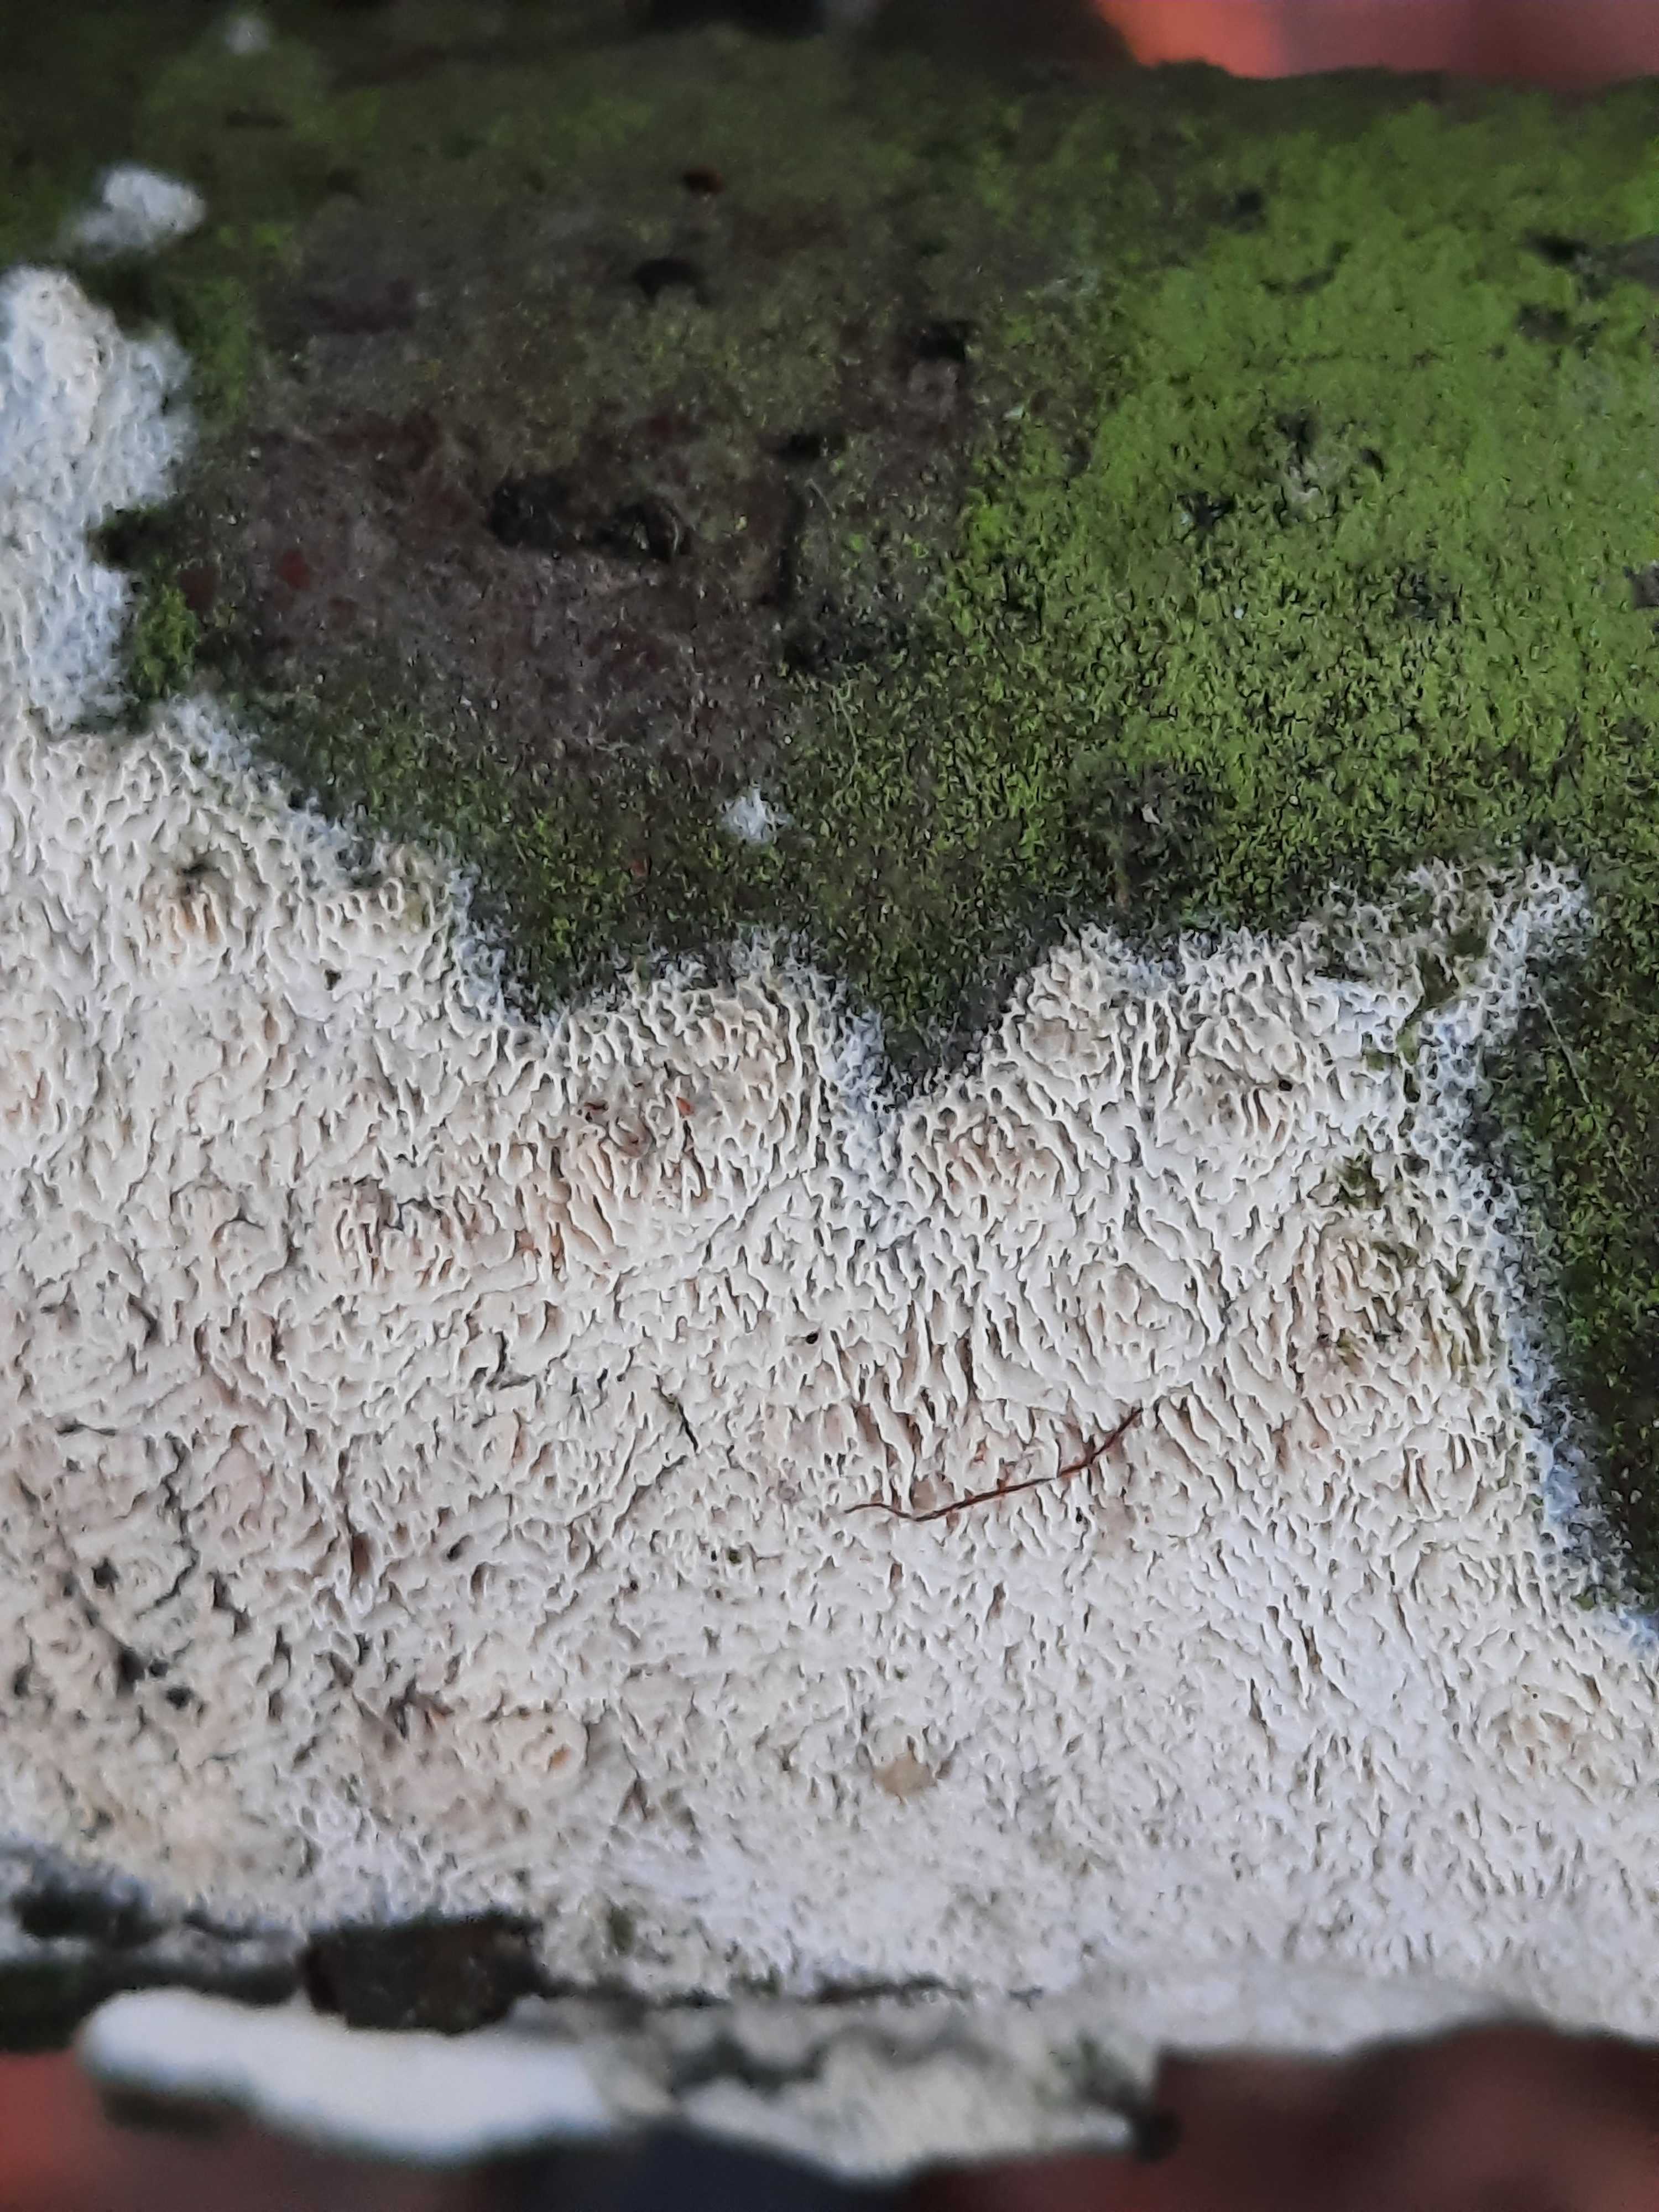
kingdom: Fungi
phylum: Basidiomycota
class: Agaricomycetes
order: Hymenochaetales
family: Schizoporaceae
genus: Xylodon
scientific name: Xylodon
